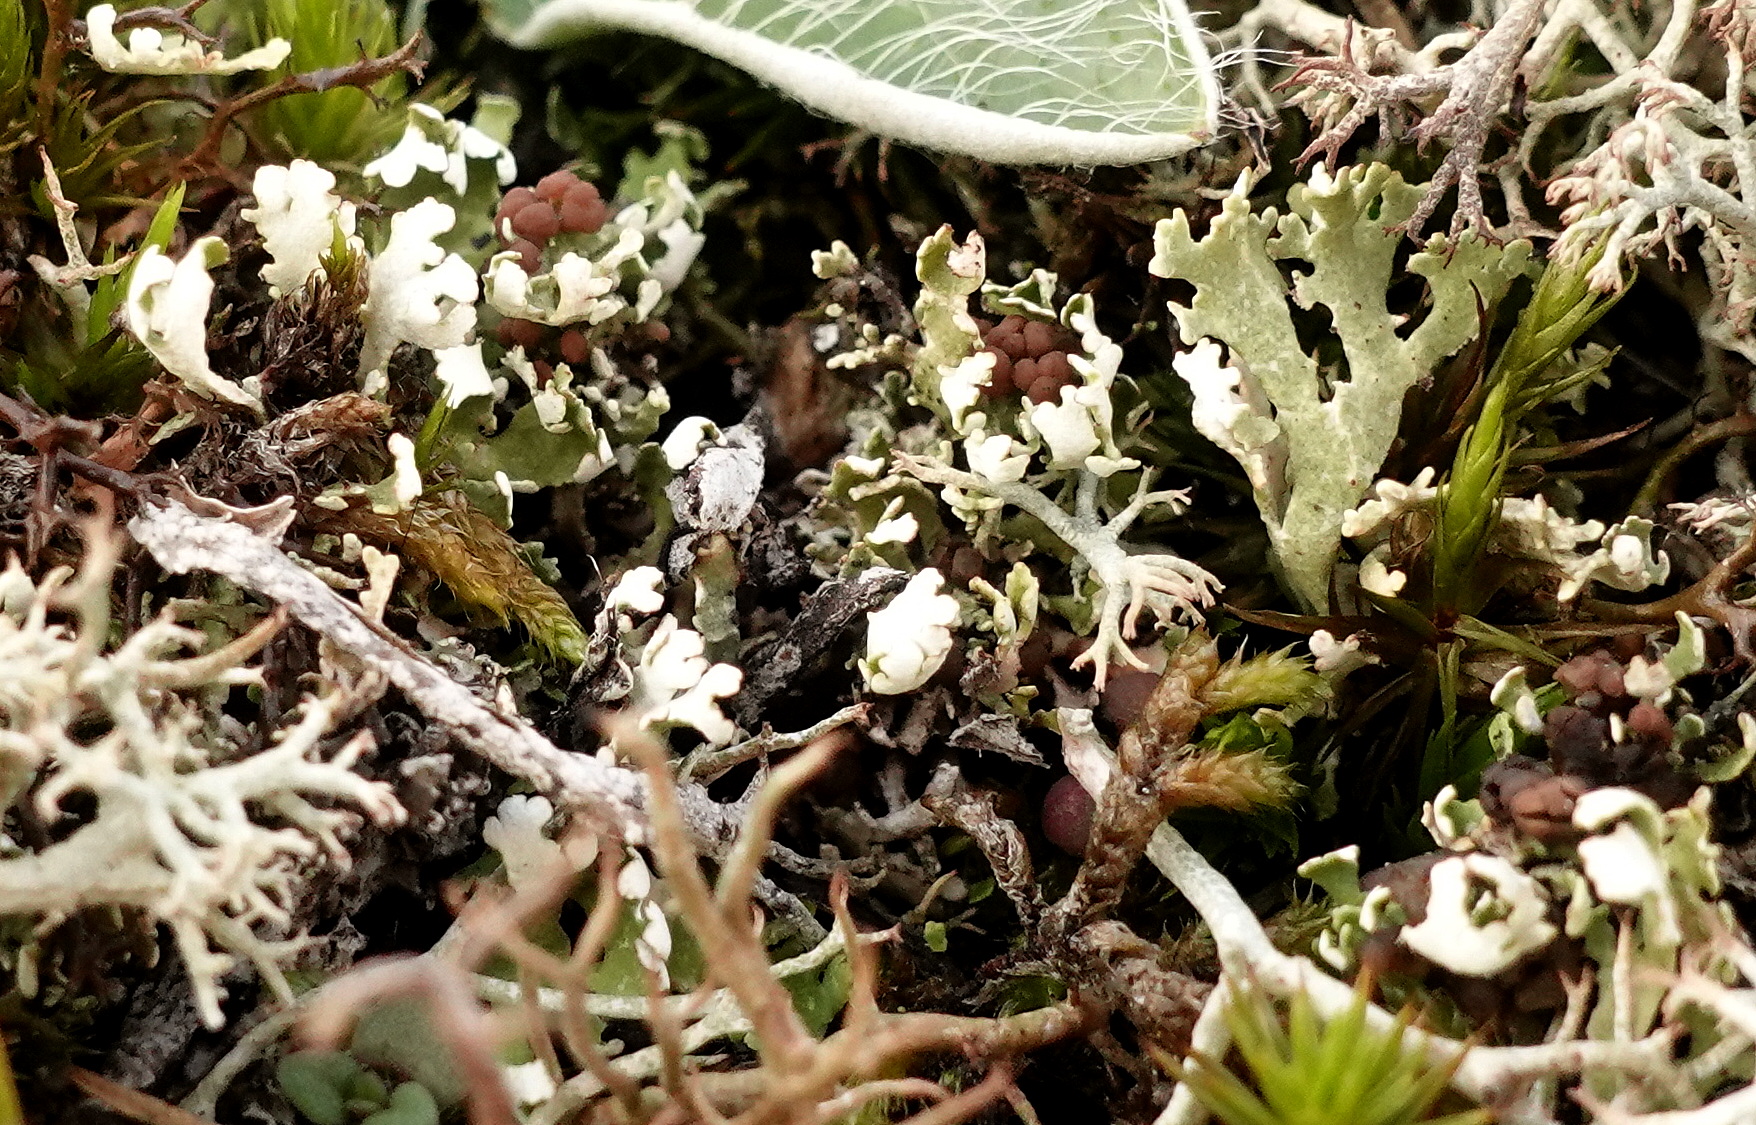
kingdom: Fungi
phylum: Ascomycota
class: Lecanoromycetes
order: Lecanorales
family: Cladoniaceae
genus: Cladonia
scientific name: Cladonia foliacea
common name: fliget bægerlav
